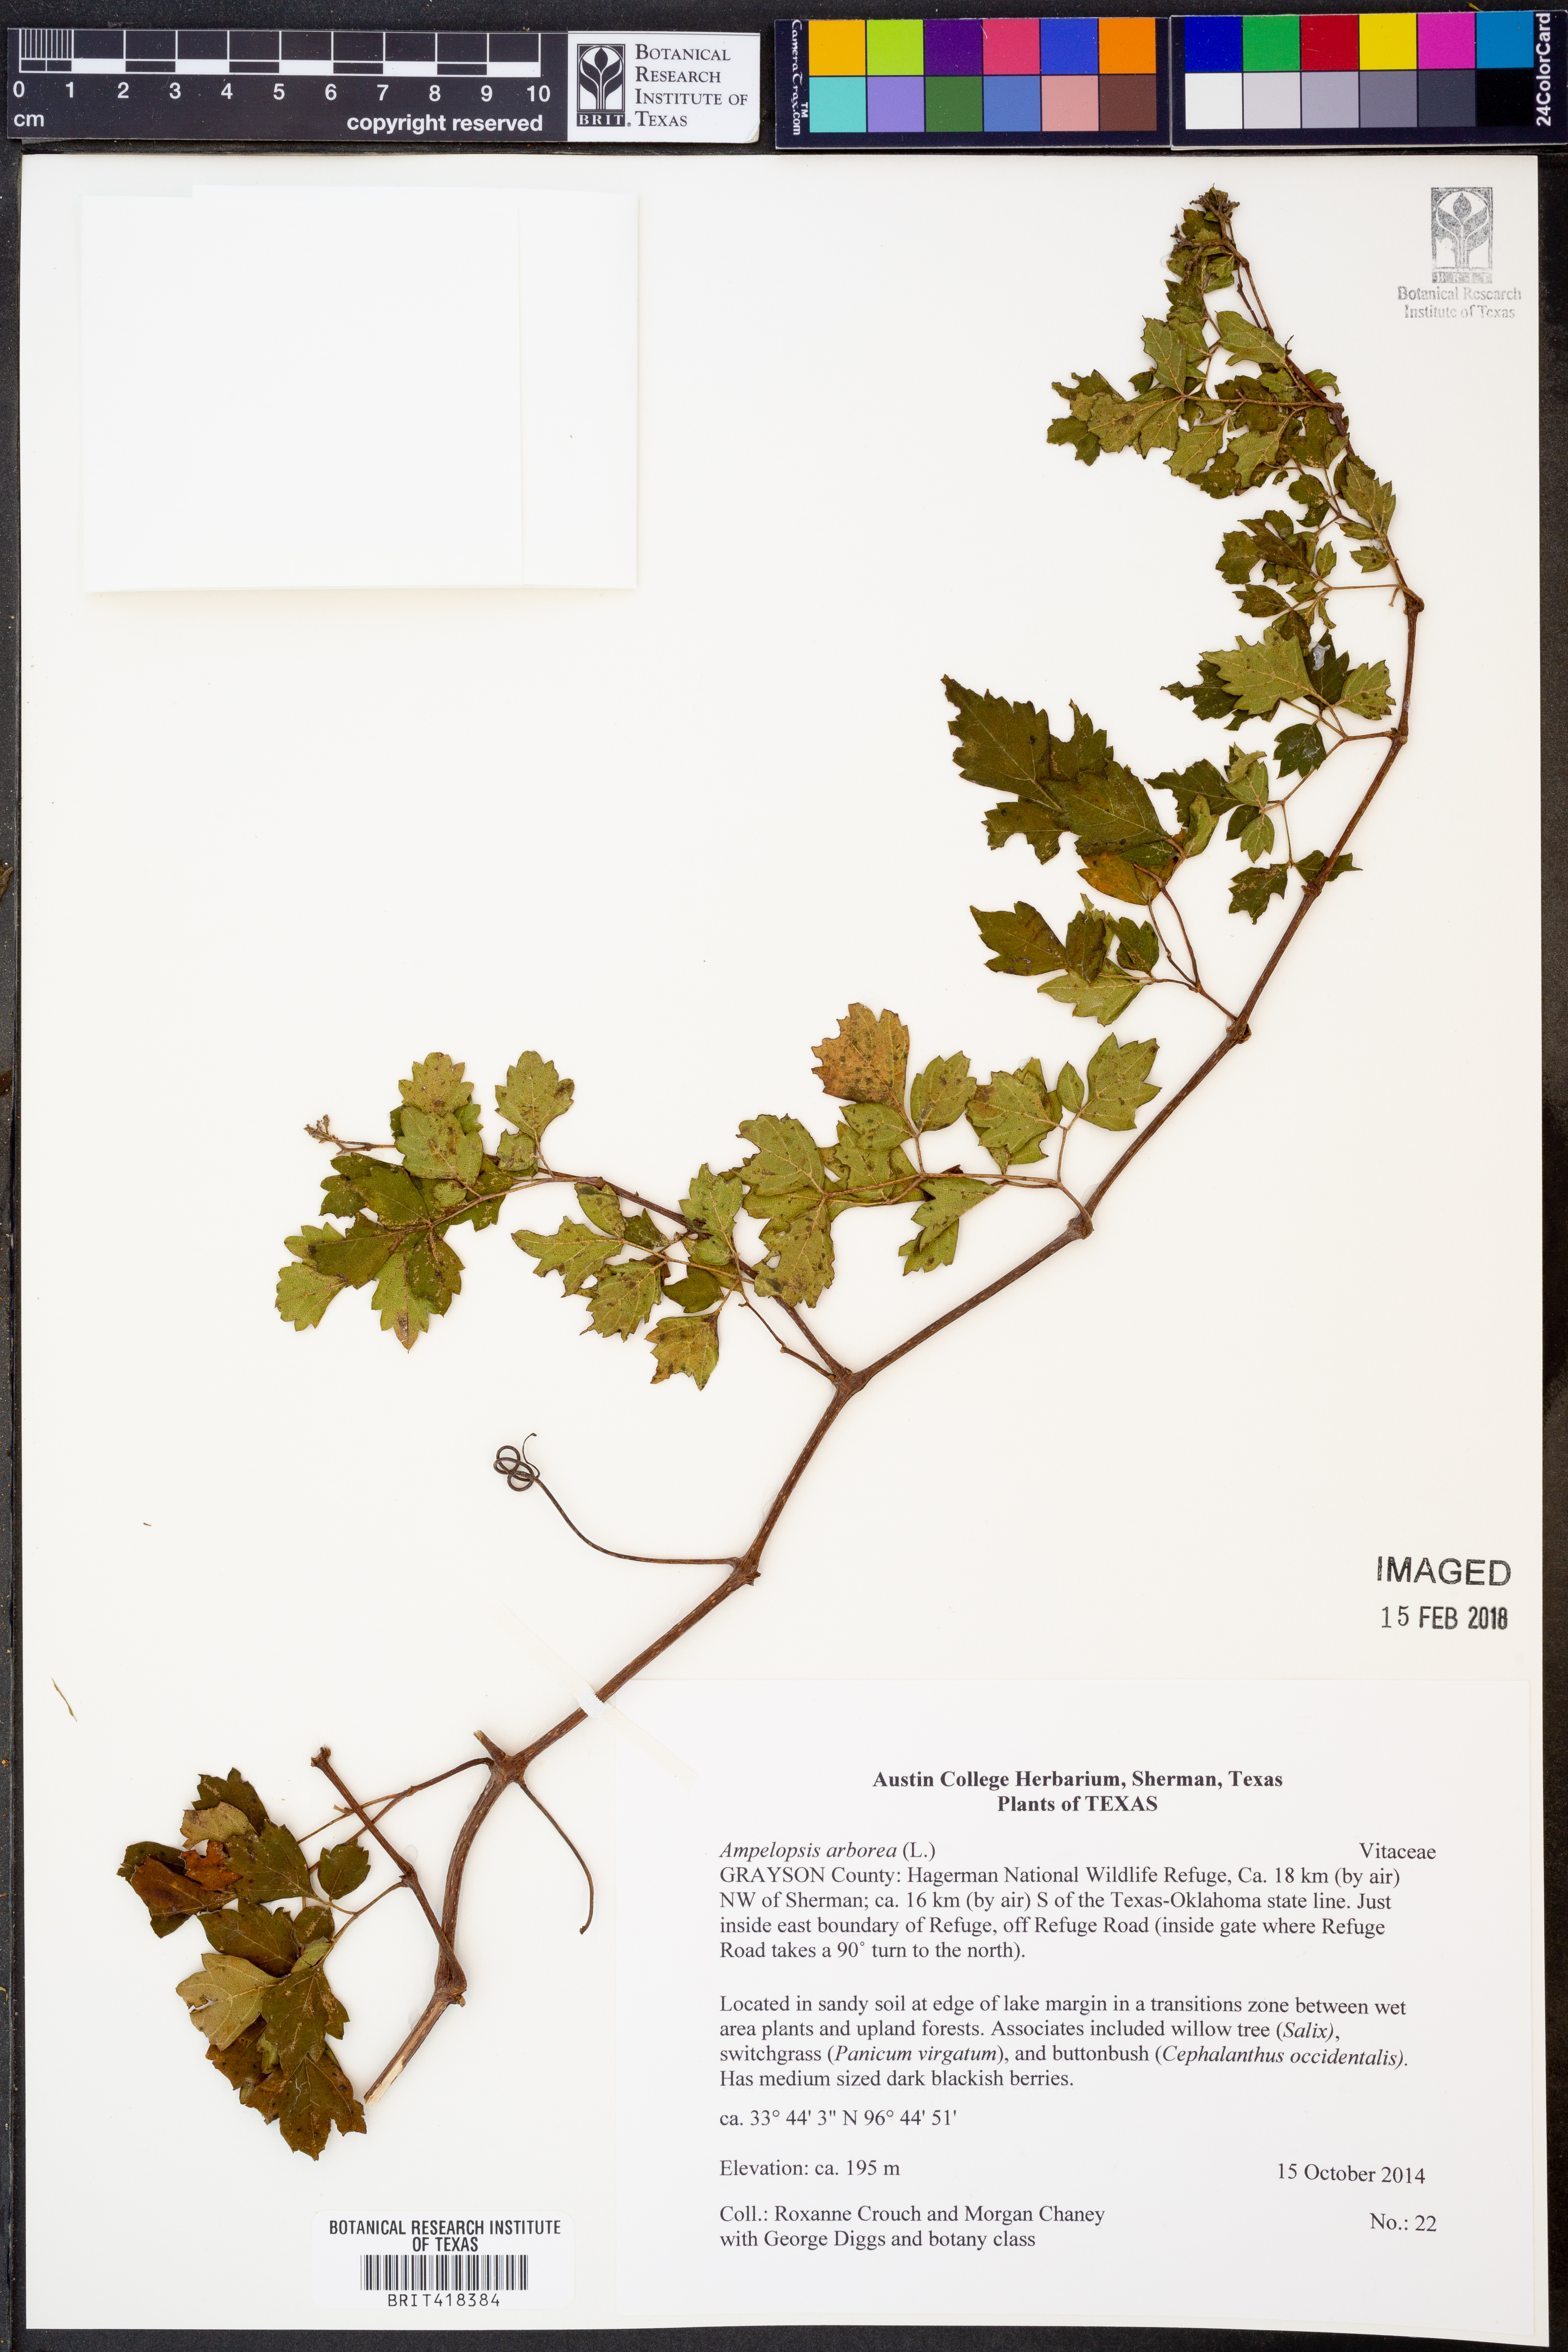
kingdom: Plantae
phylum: Tracheophyta
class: Magnoliopsida
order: Vitales
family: Vitaceae
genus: Nekemias
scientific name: Nekemias arborea
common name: Peppervine
